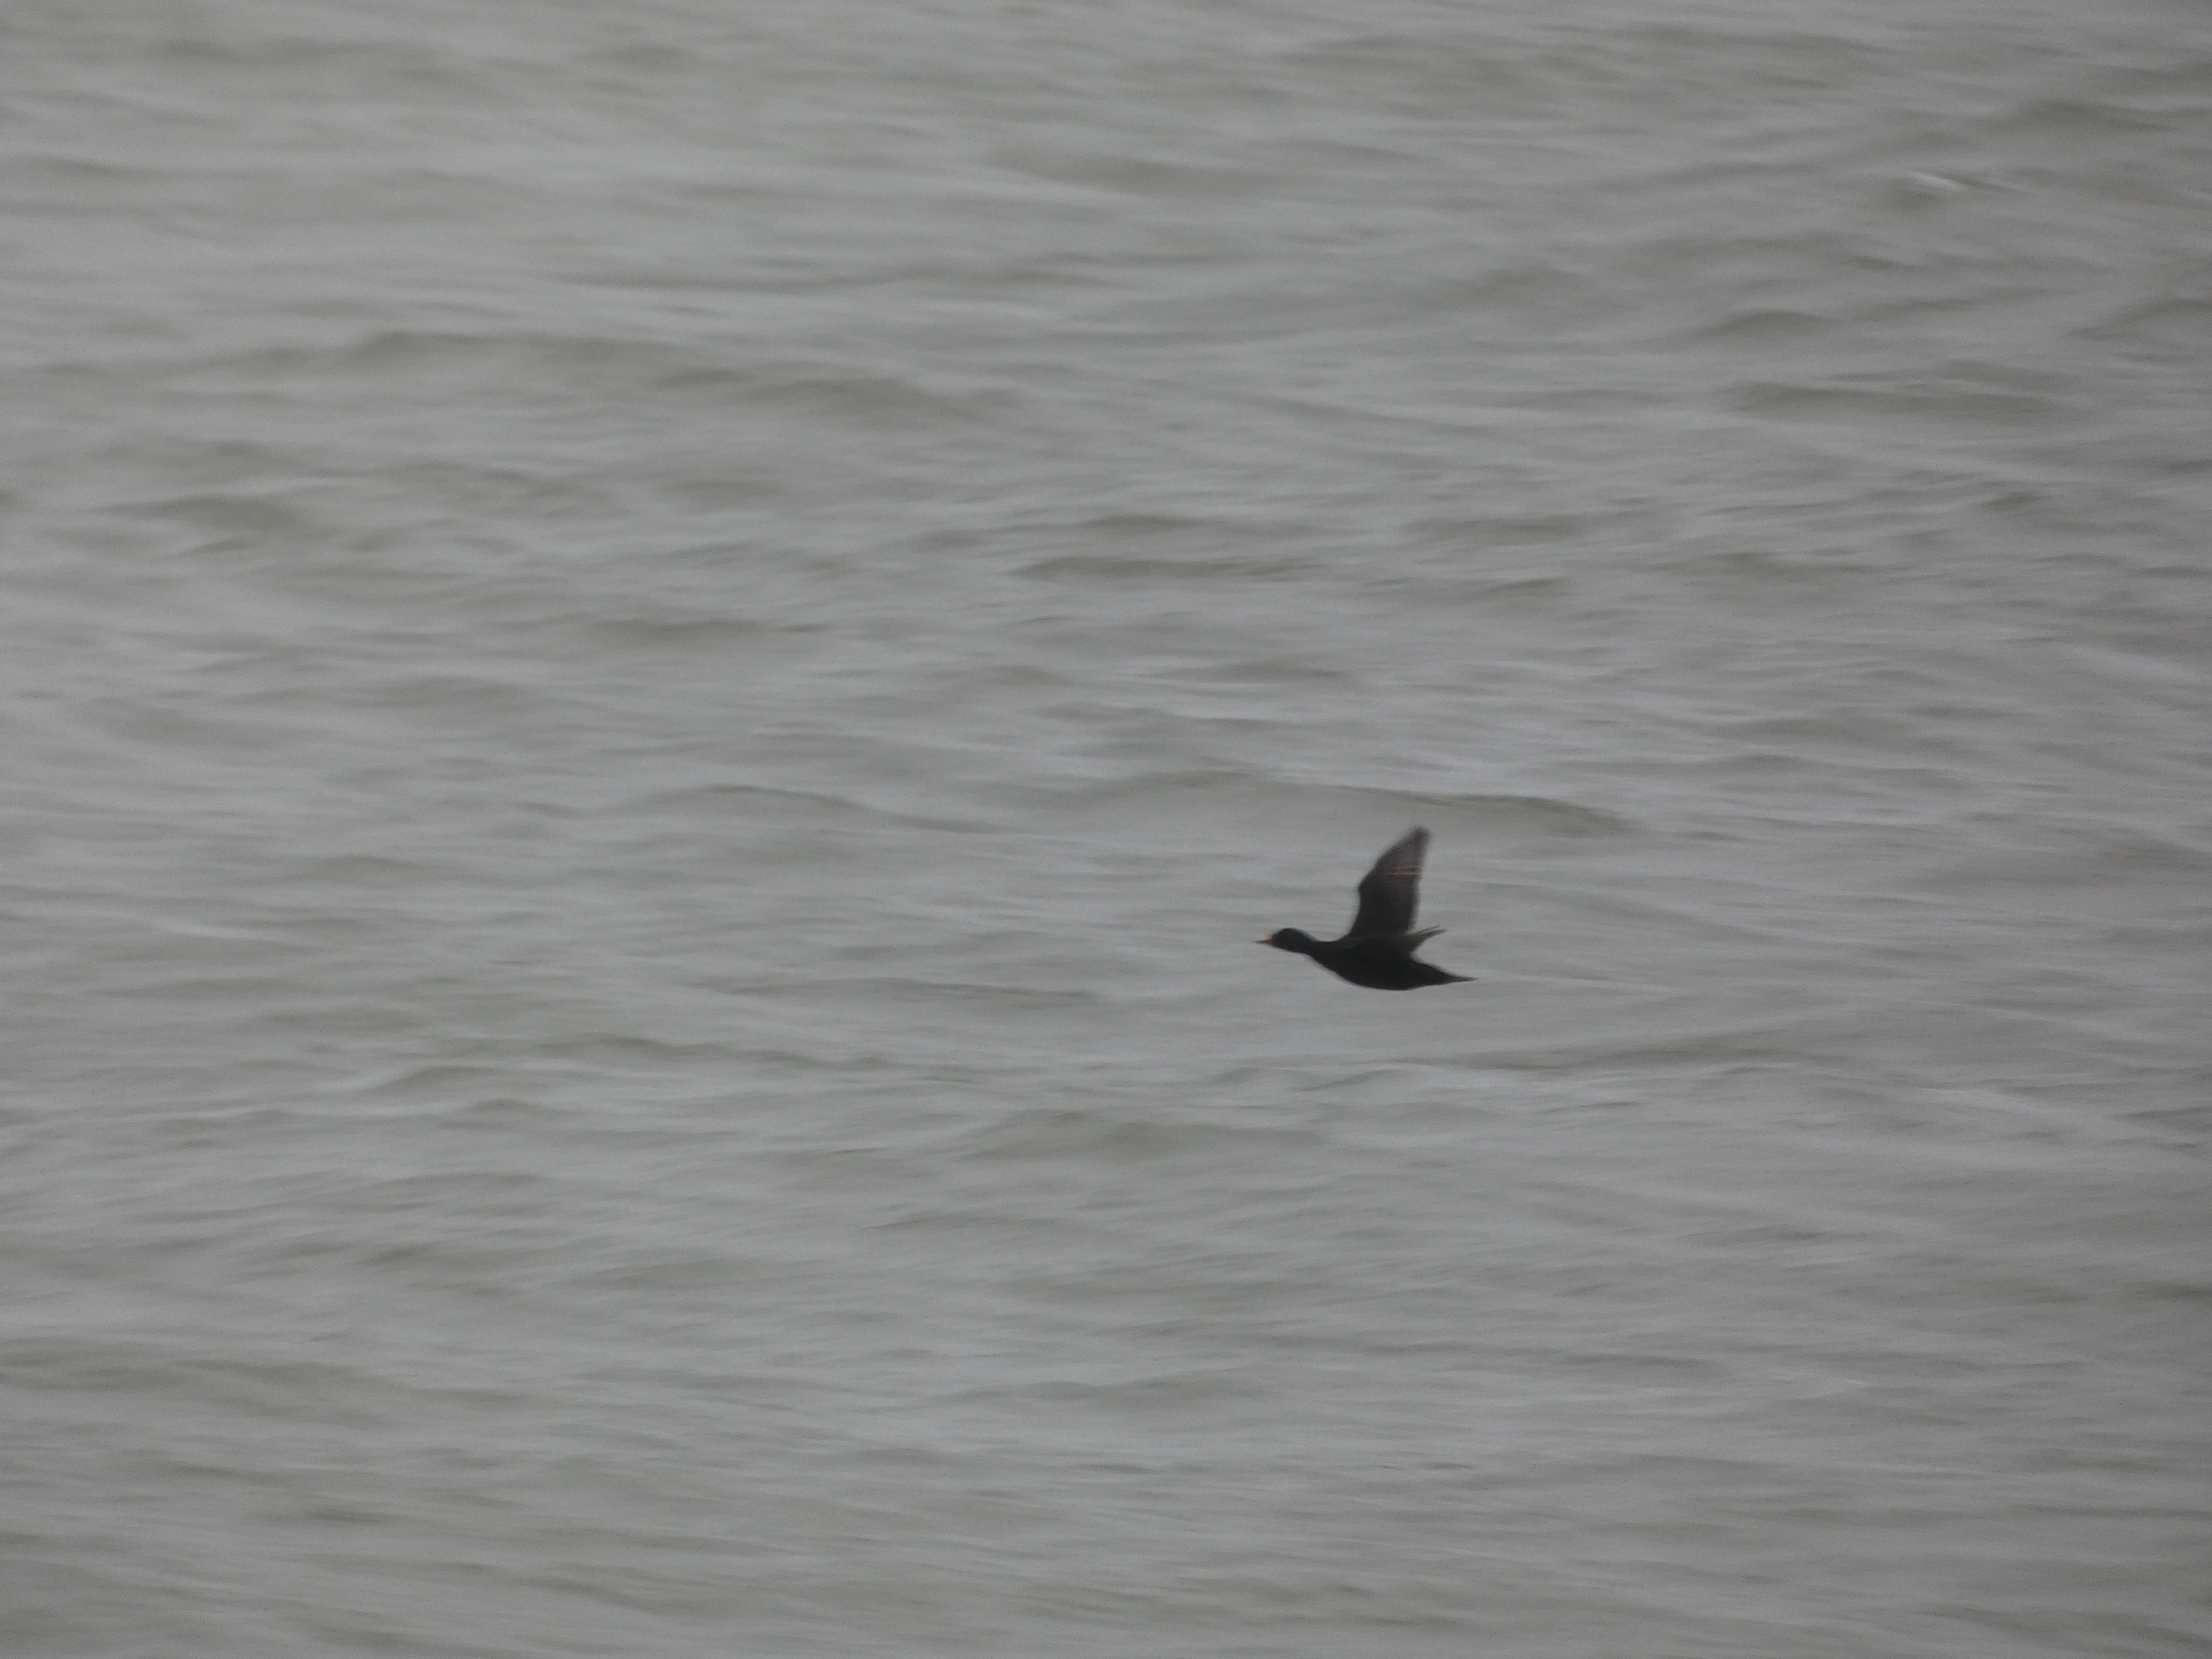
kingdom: Animalia
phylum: Chordata
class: Aves
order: Anseriformes
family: Anatidae
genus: Melanitta
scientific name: Melanitta nigra
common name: Sortand
